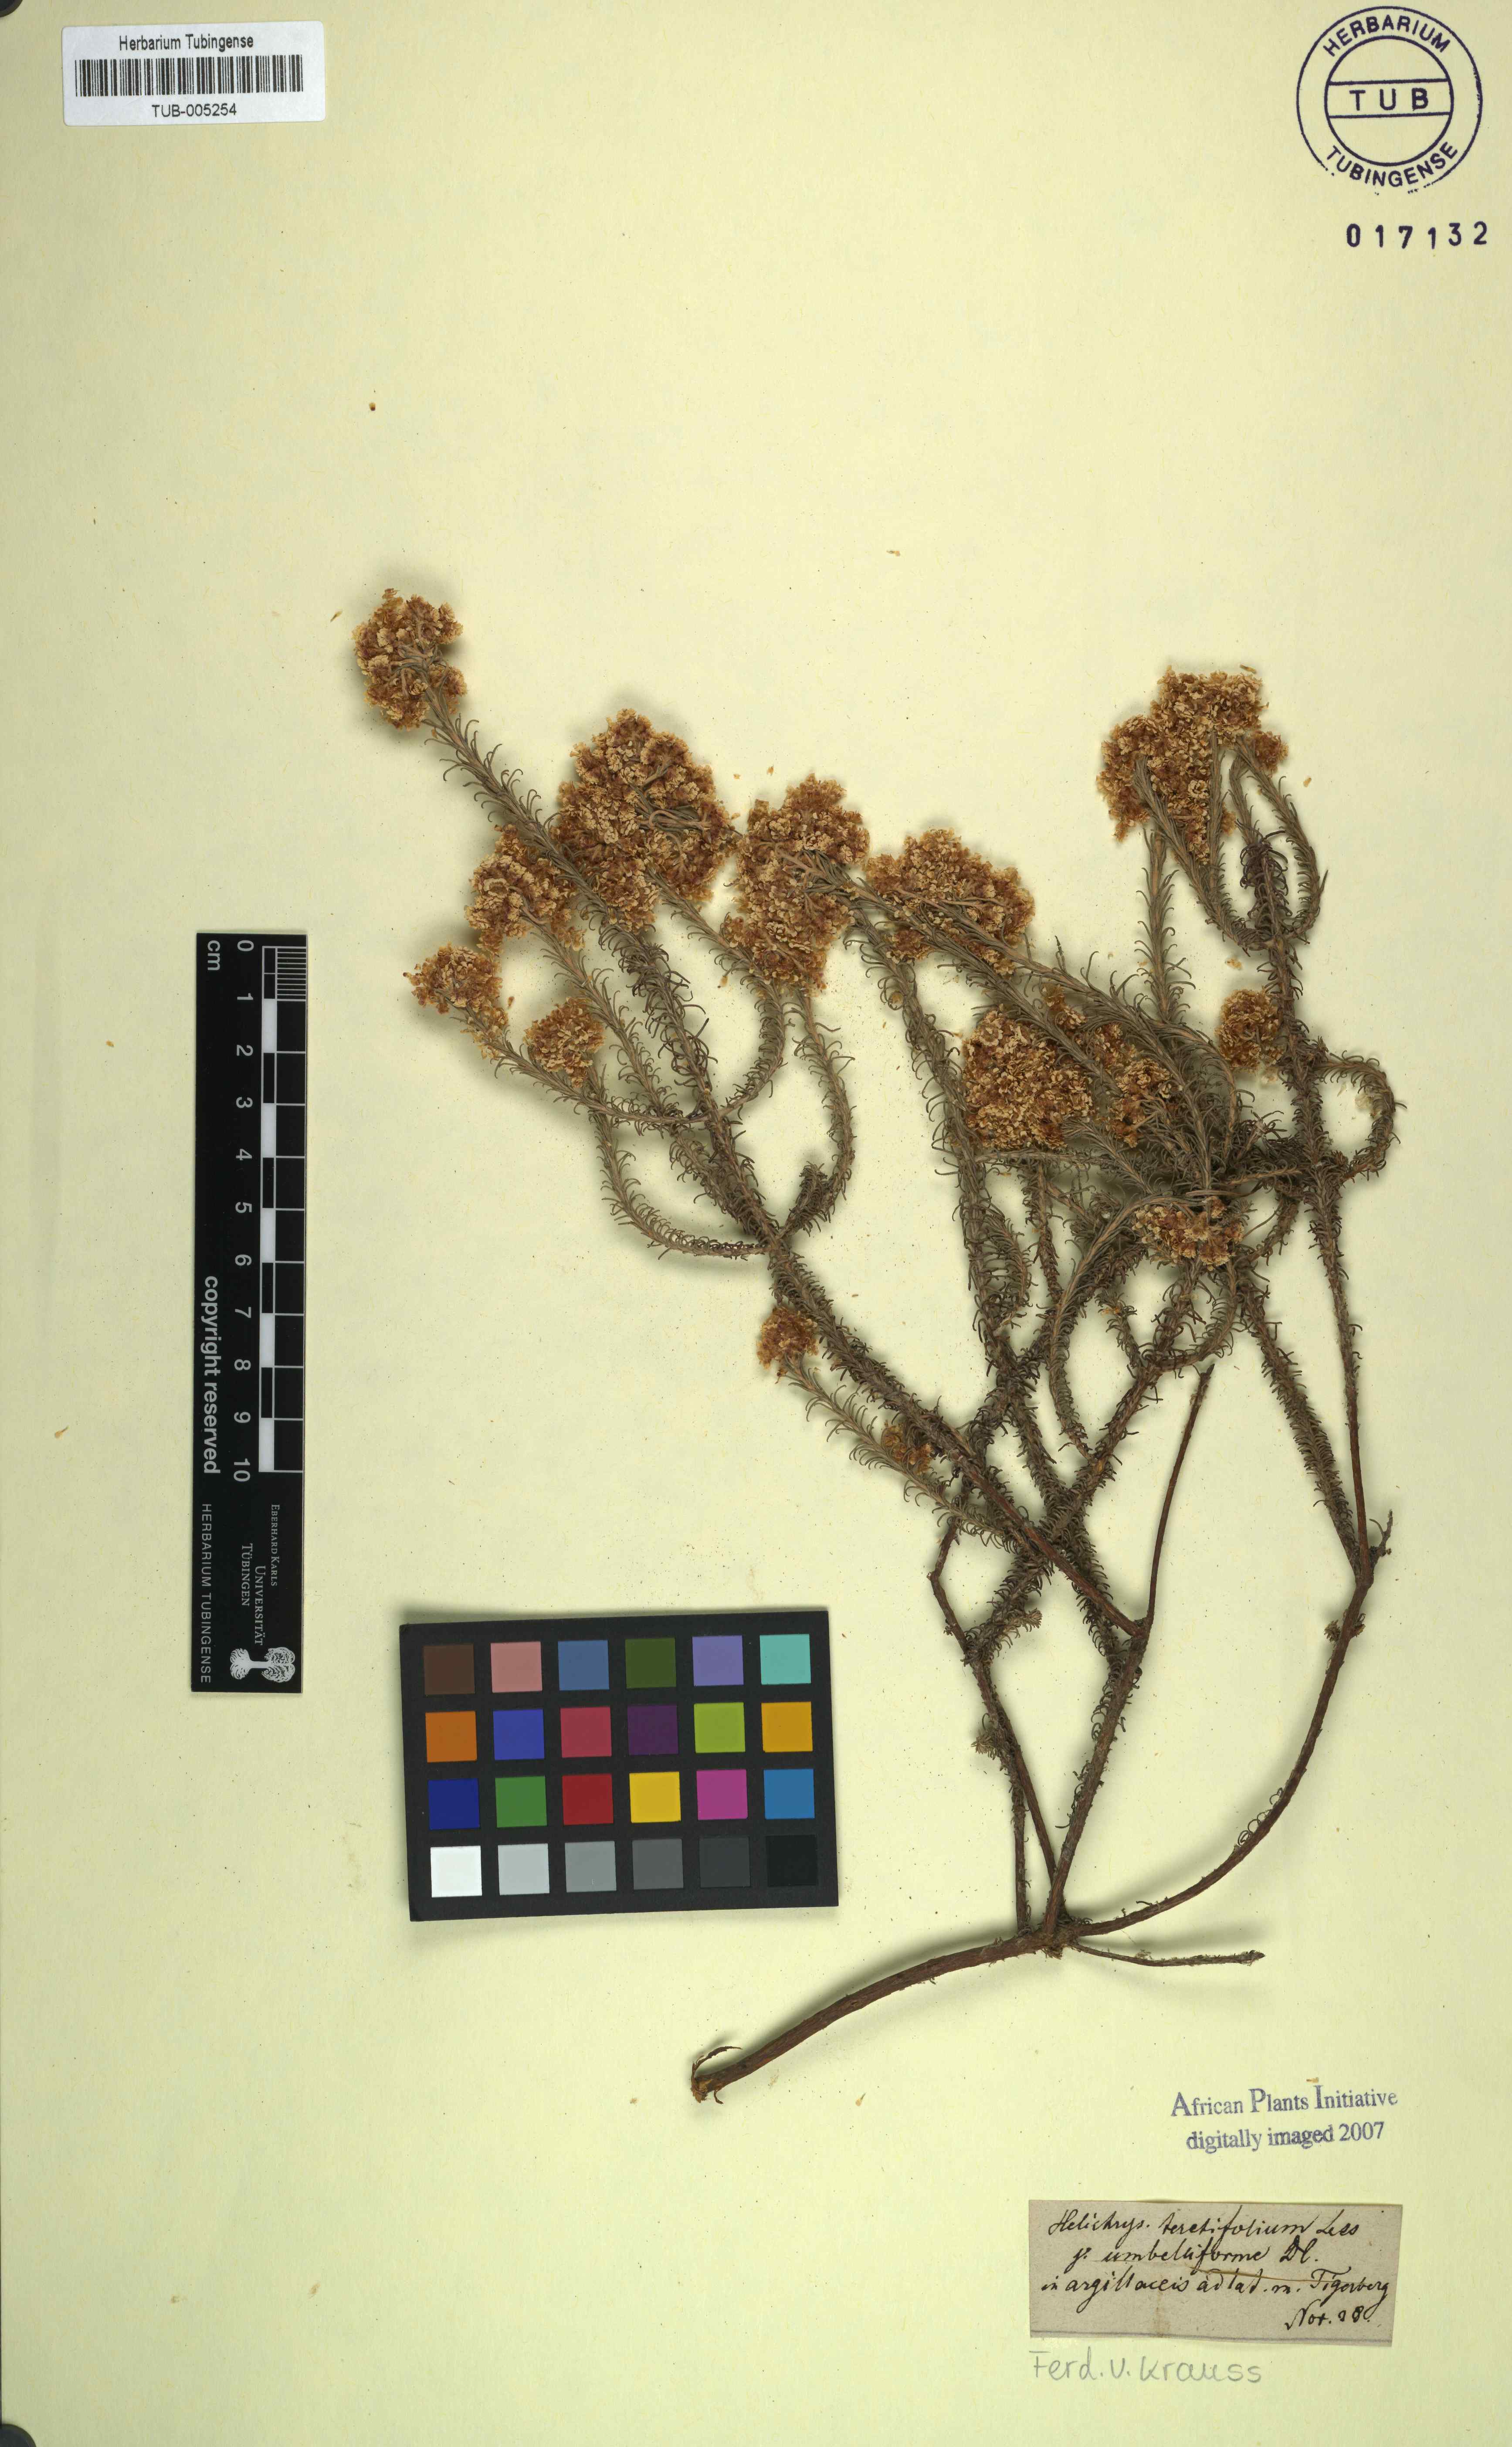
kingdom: Plantae
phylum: Tracheophyta
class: Magnoliopsida
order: Asterales
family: Asteraceae
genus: Helichrysum
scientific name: Helichrysum
